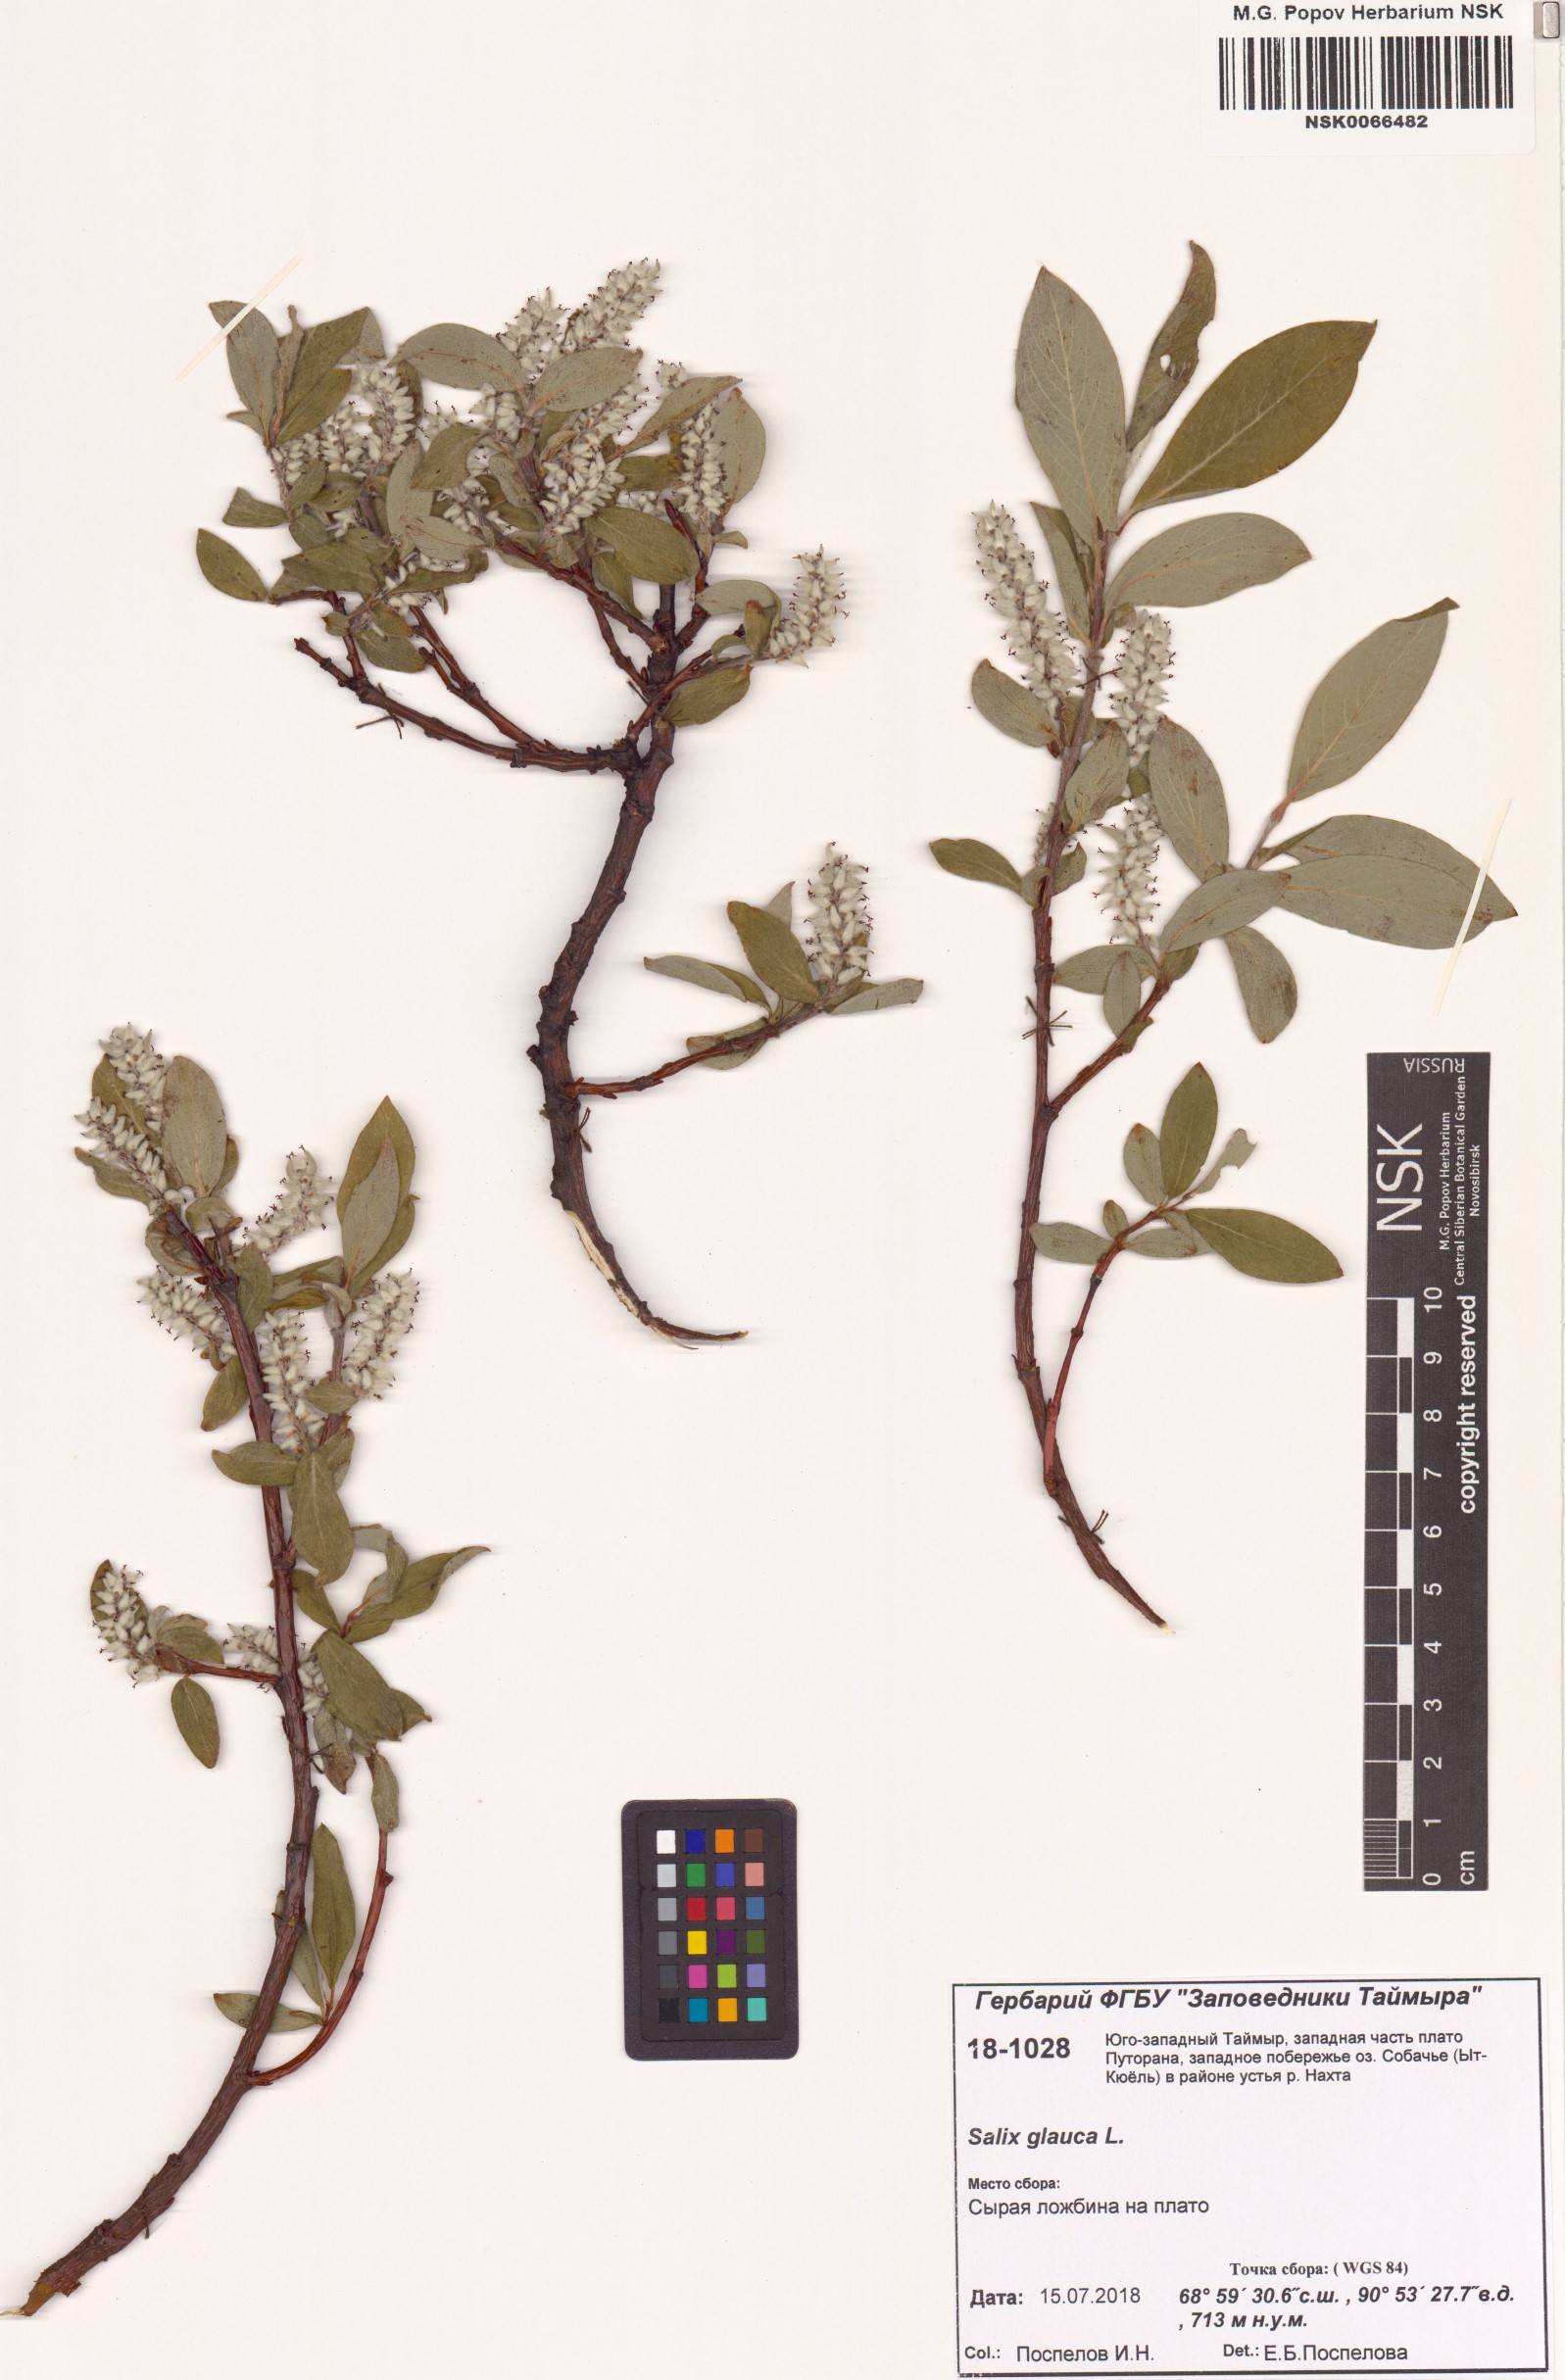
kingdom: Plantae
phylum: Tracheophyta
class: Magnoliopsida
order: Malpighiales
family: Salicaceae
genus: Salix
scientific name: Salix glauca
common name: Glaucous willow
